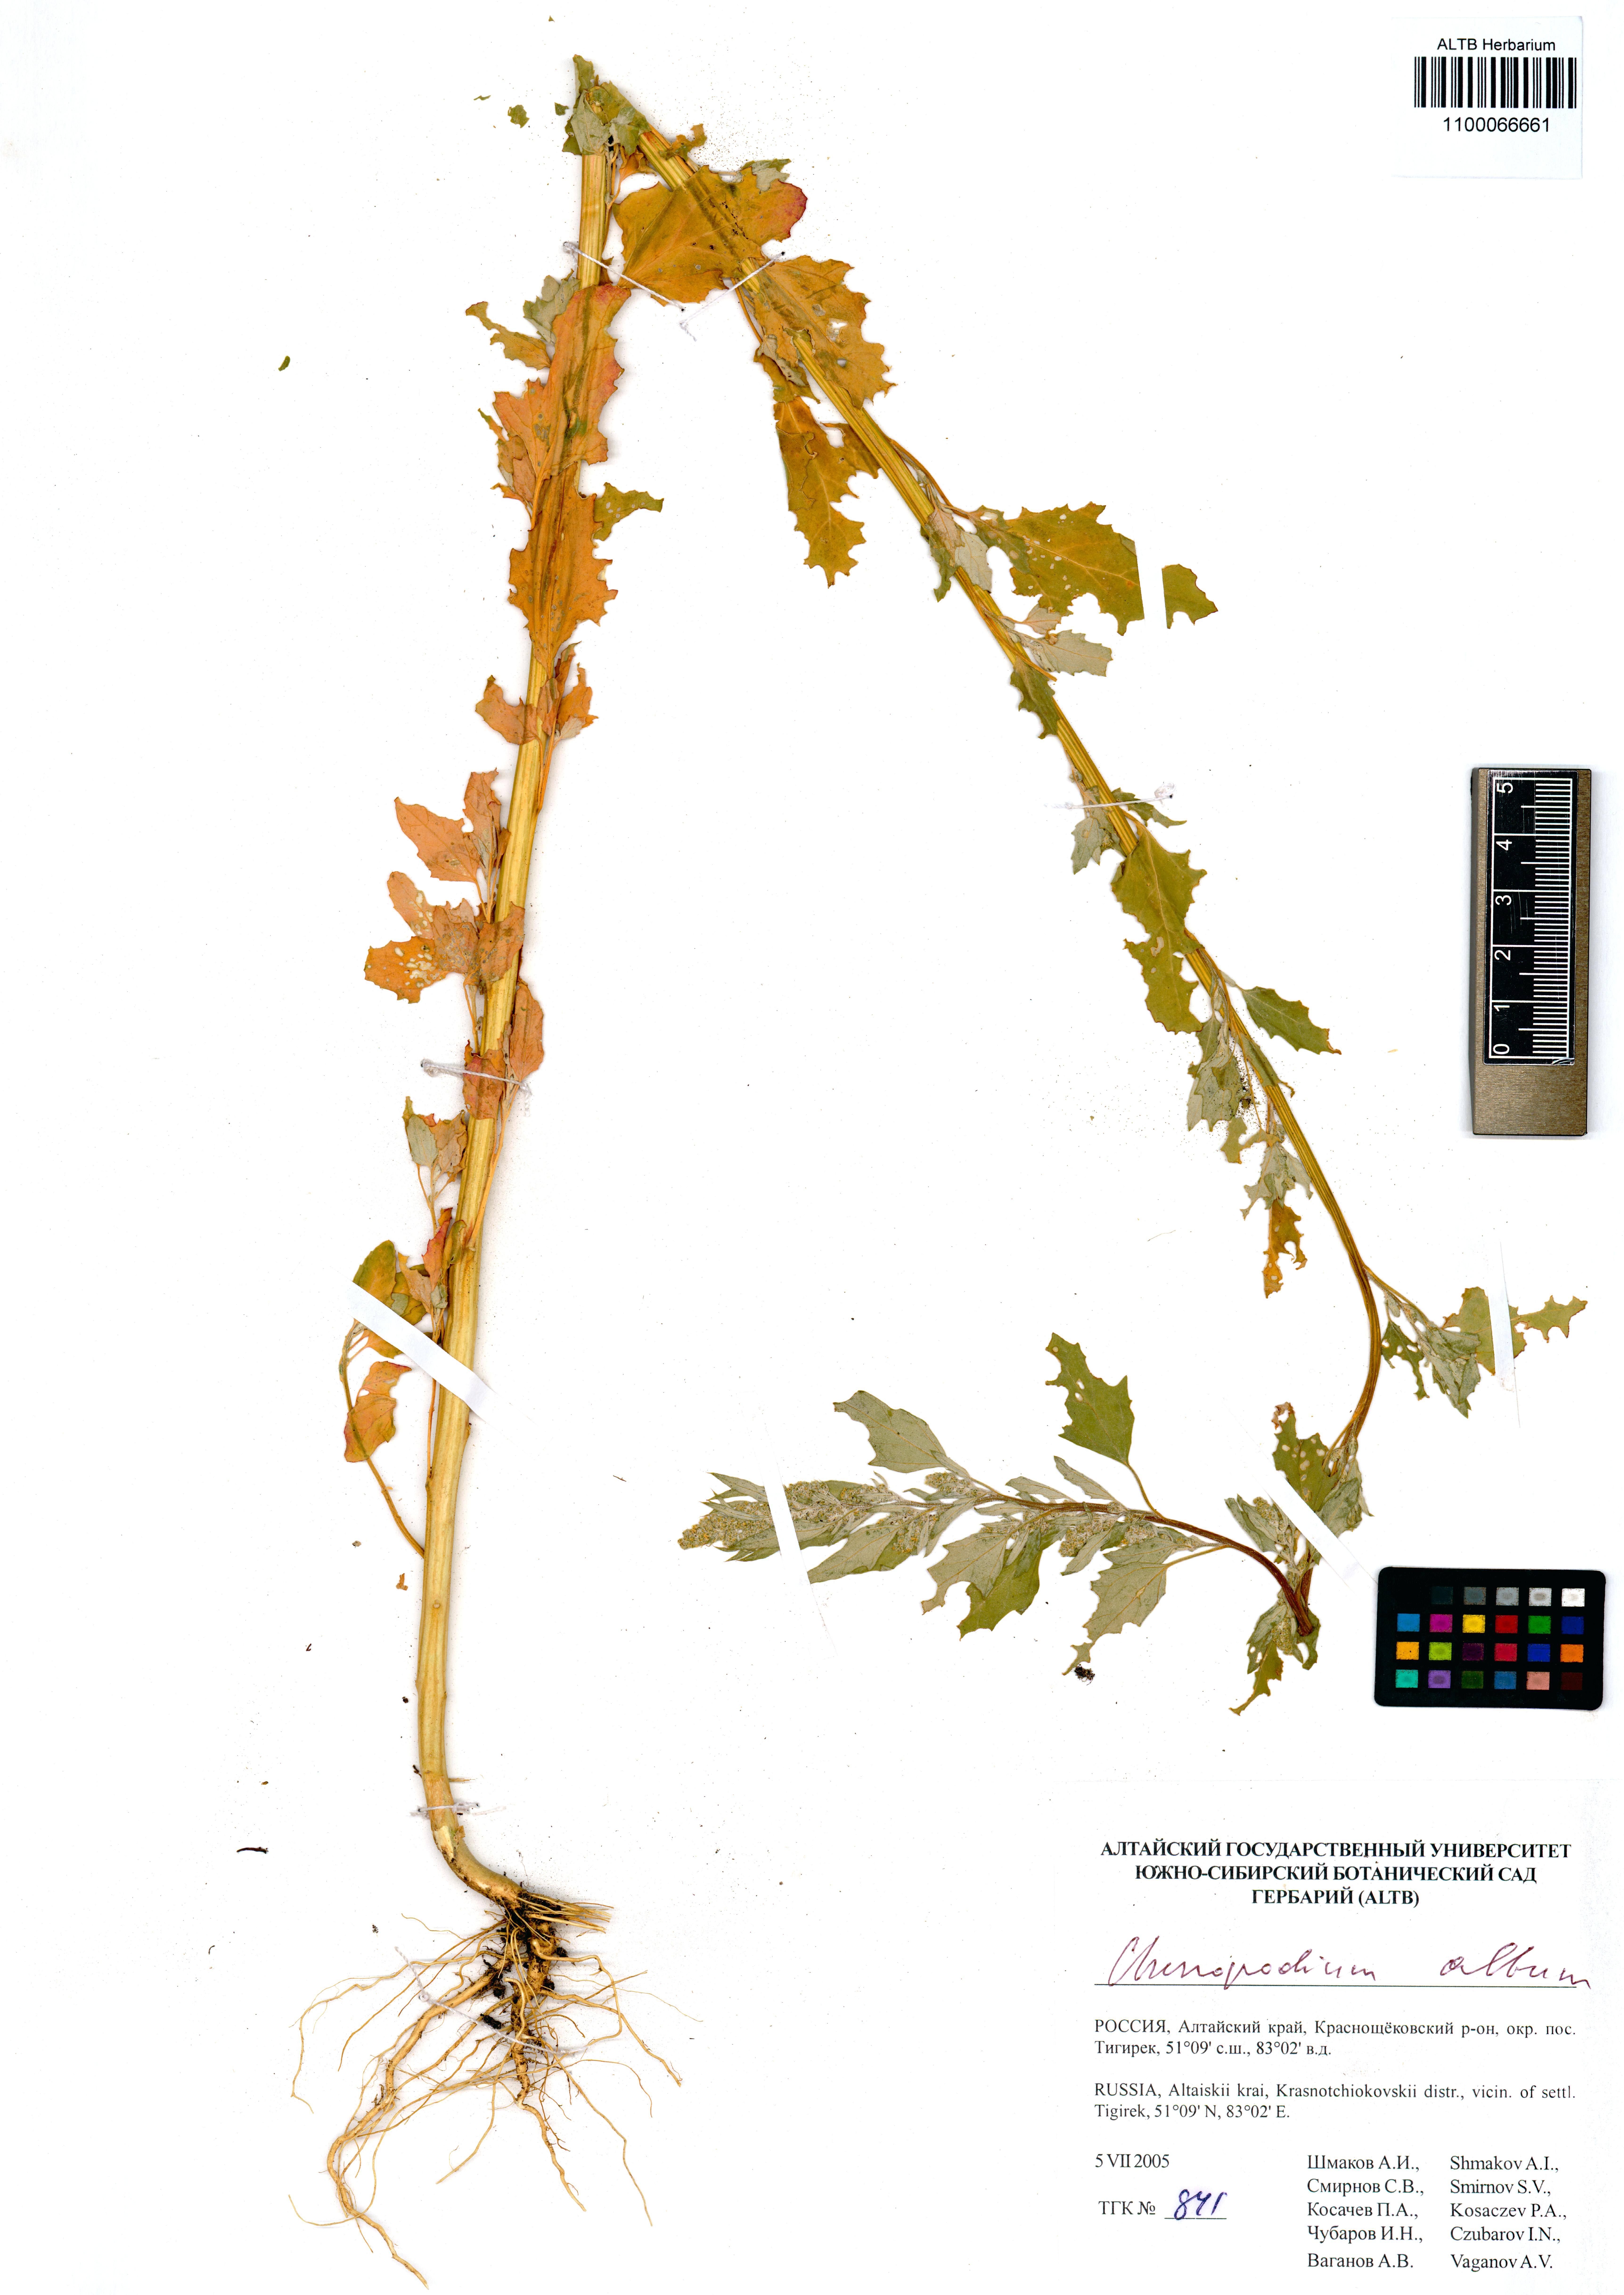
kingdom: Plantae
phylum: Tracheophyta
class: Magnoliopsida
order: Caryophyllales
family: Amaranthaceae
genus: Chenopodium
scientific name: Chenopodium album
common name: Fat-hen
